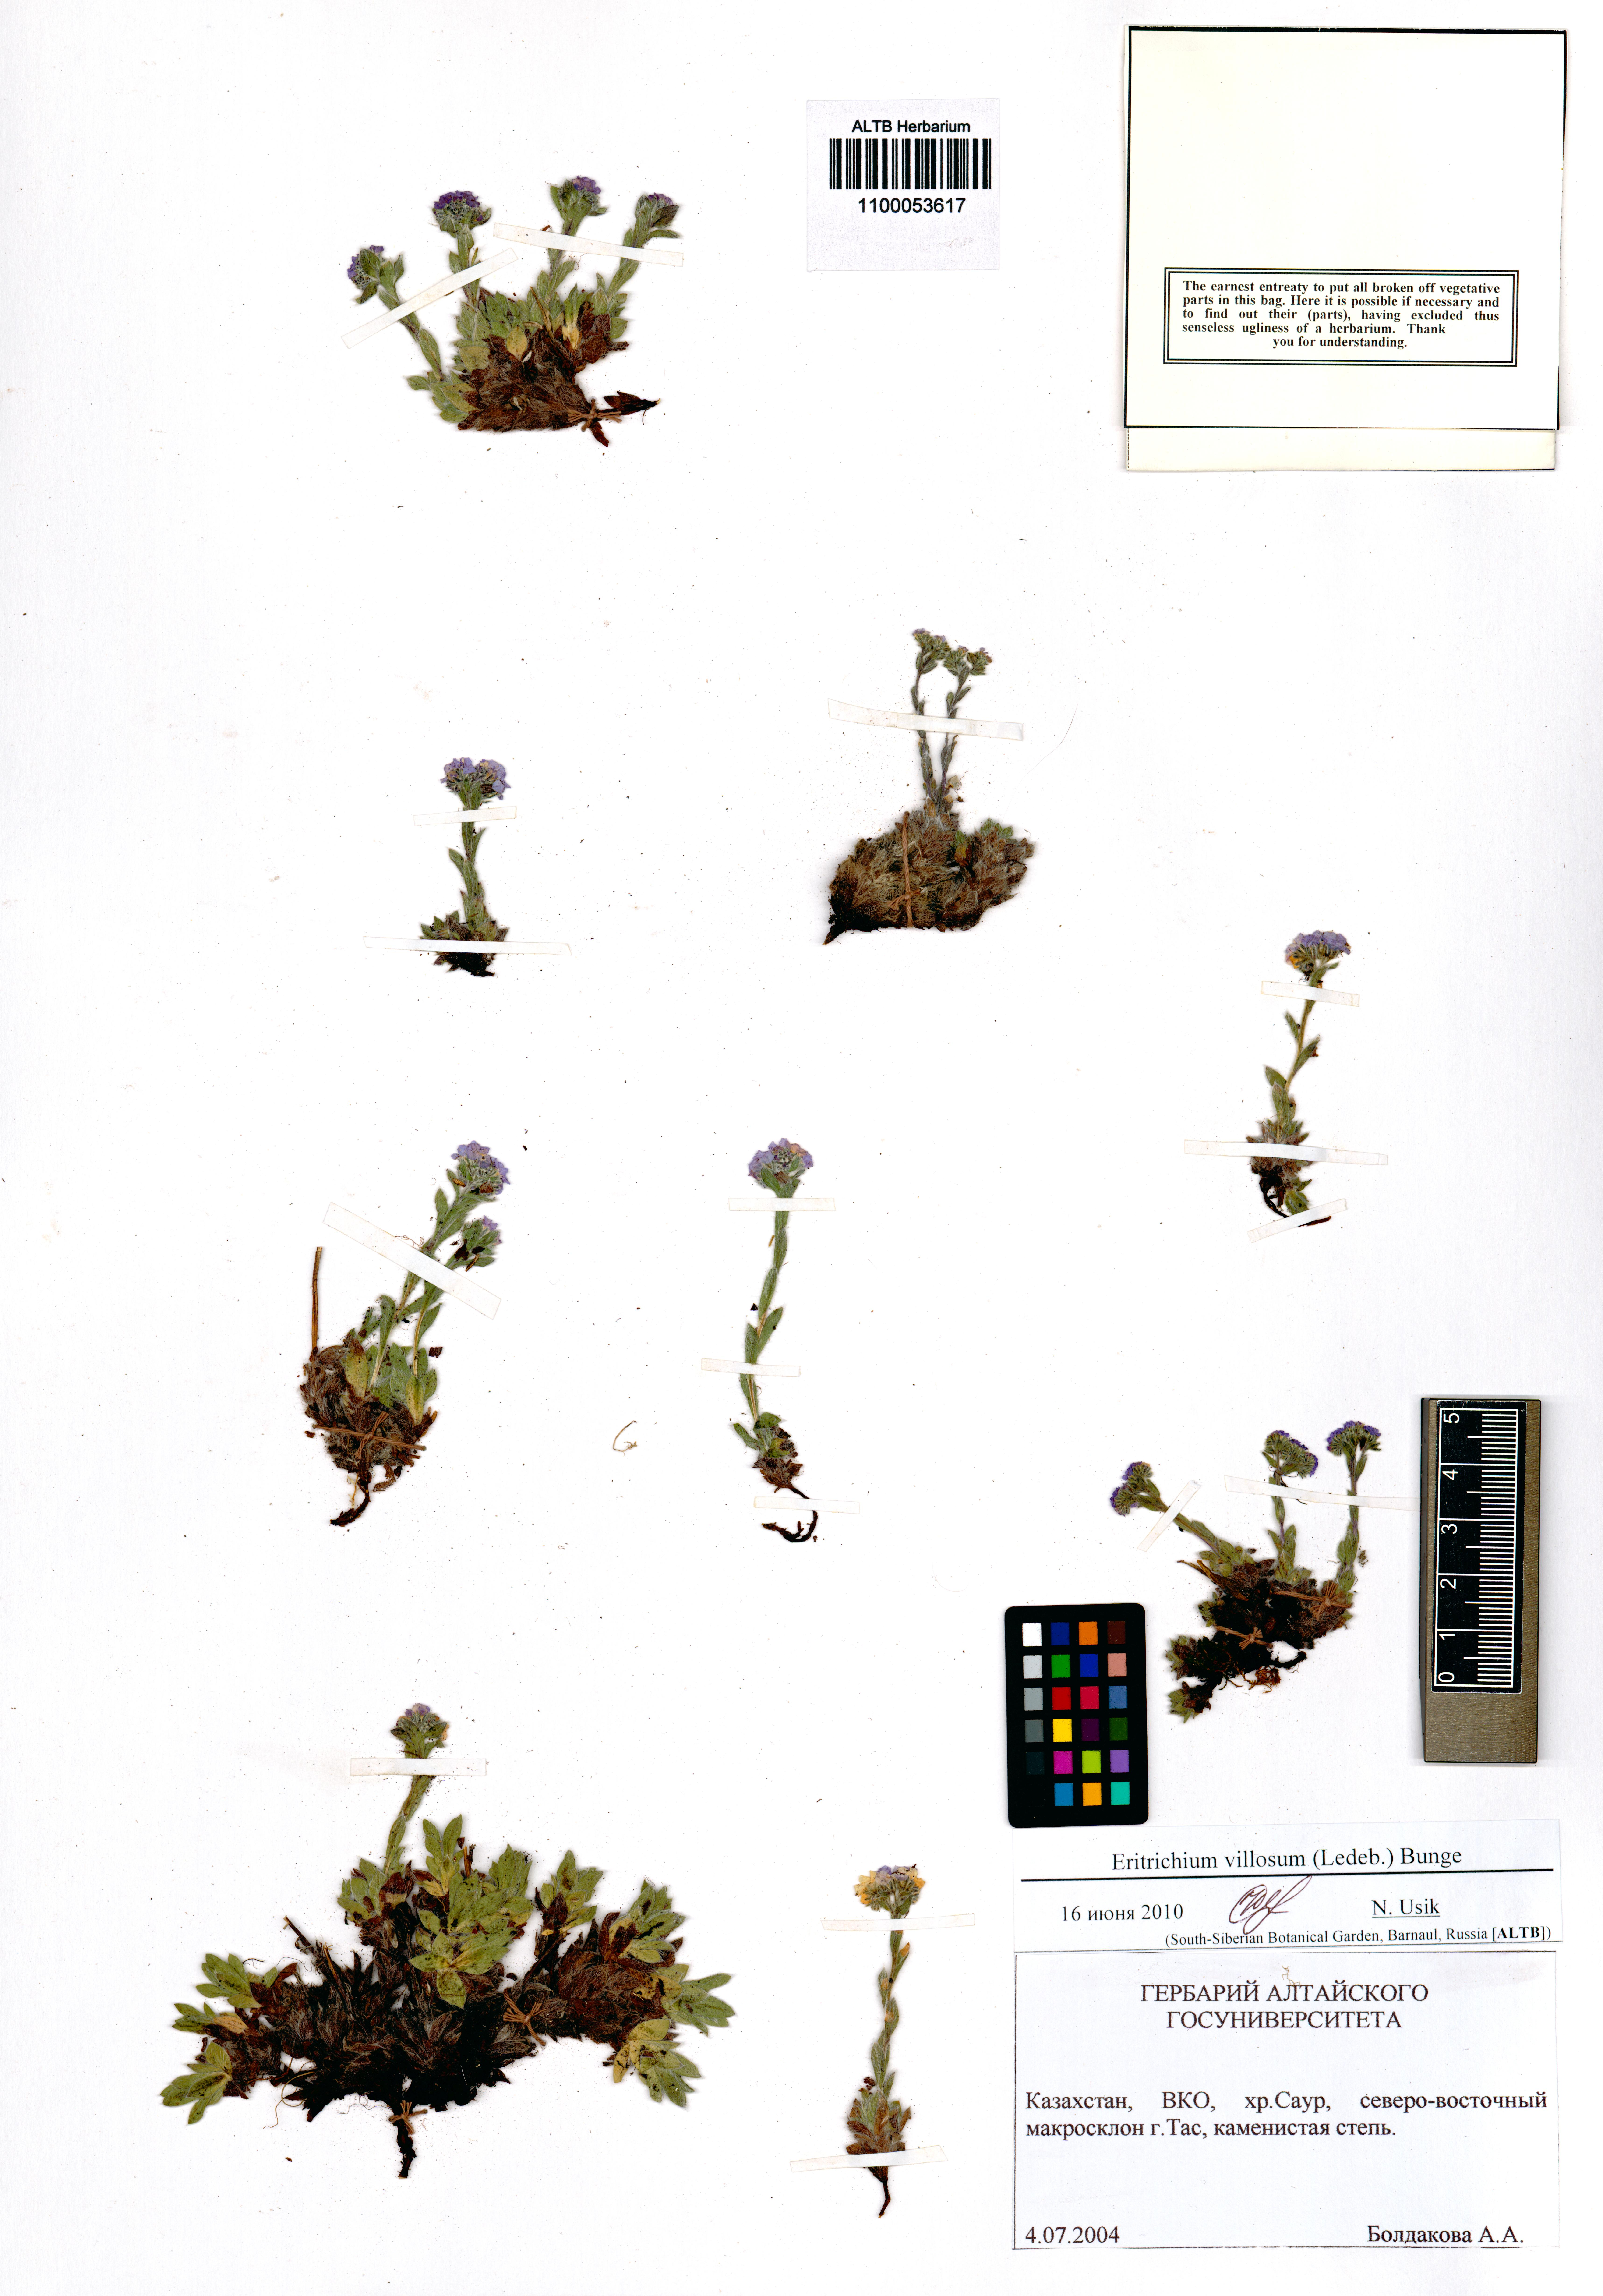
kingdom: Plantae
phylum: Tracheophyta
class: Magnoliopsida
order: Boraginales
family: Boraginaceae
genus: Eritrichium
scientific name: Eritrichium villosum
